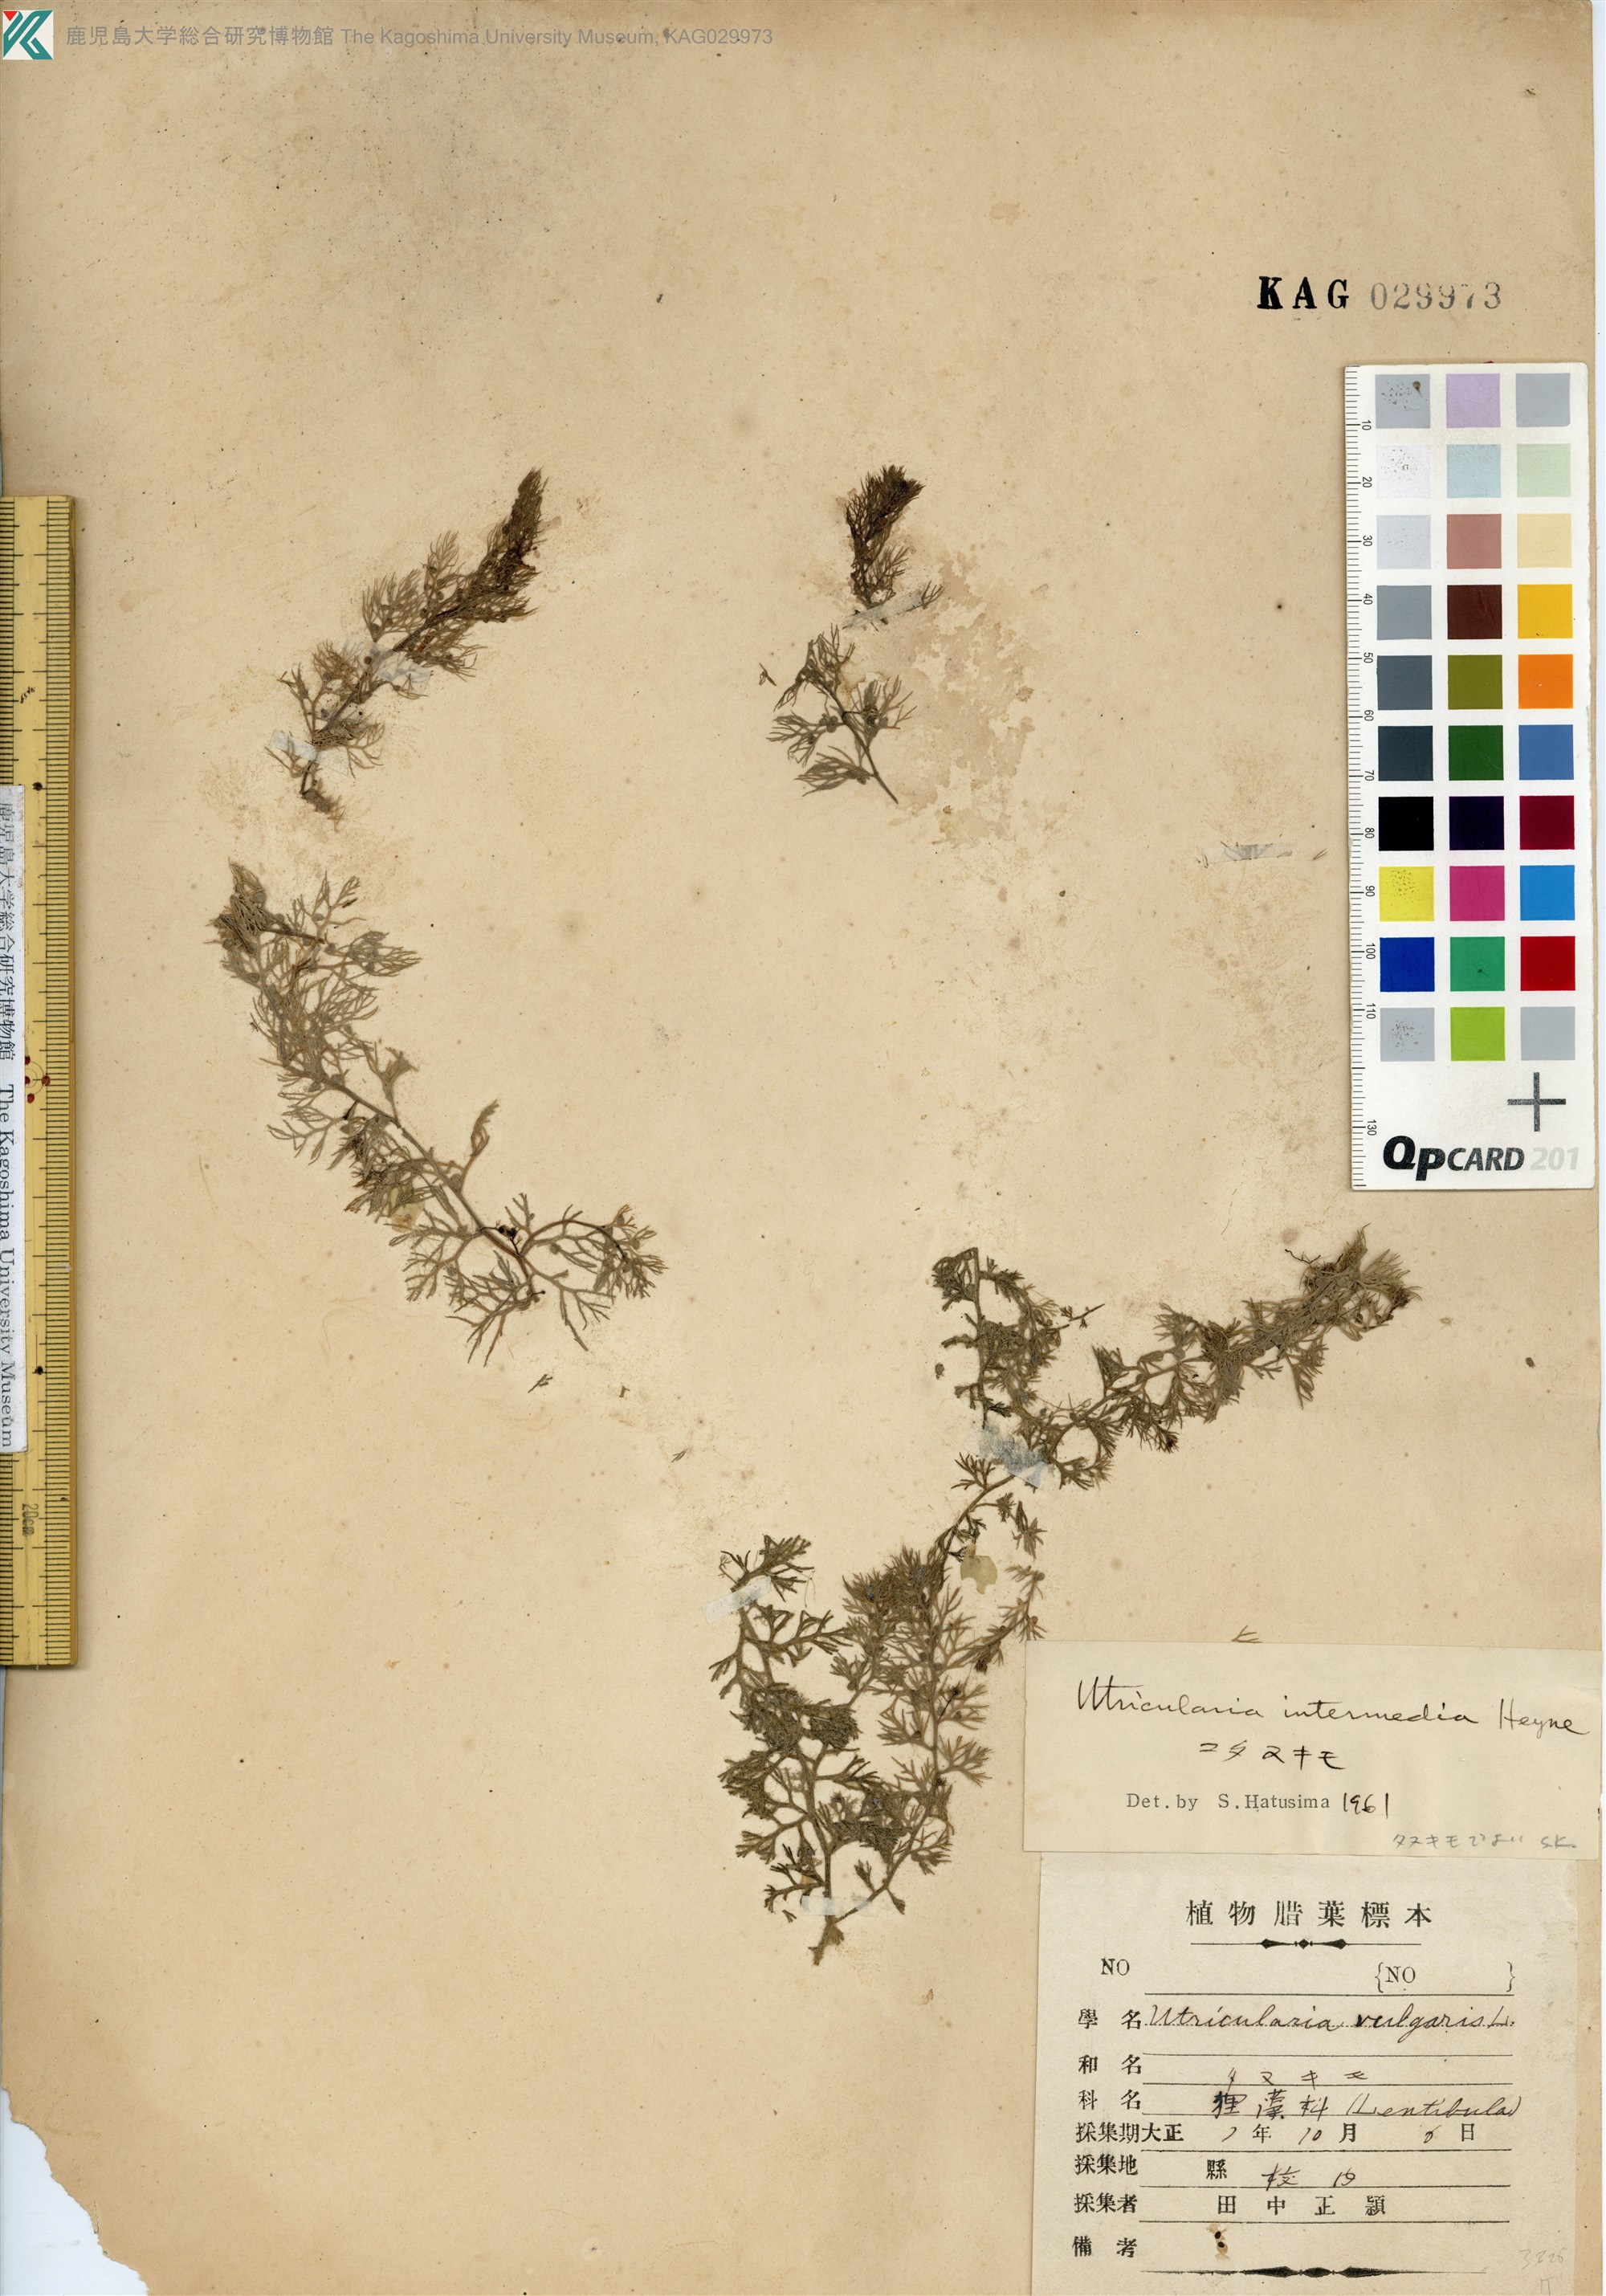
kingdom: Plantae
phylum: Tracheophyta
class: Magnoliopsida
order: Lamiales
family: Lentibulariaceae
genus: Utricularia
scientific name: Utricularia japonica
